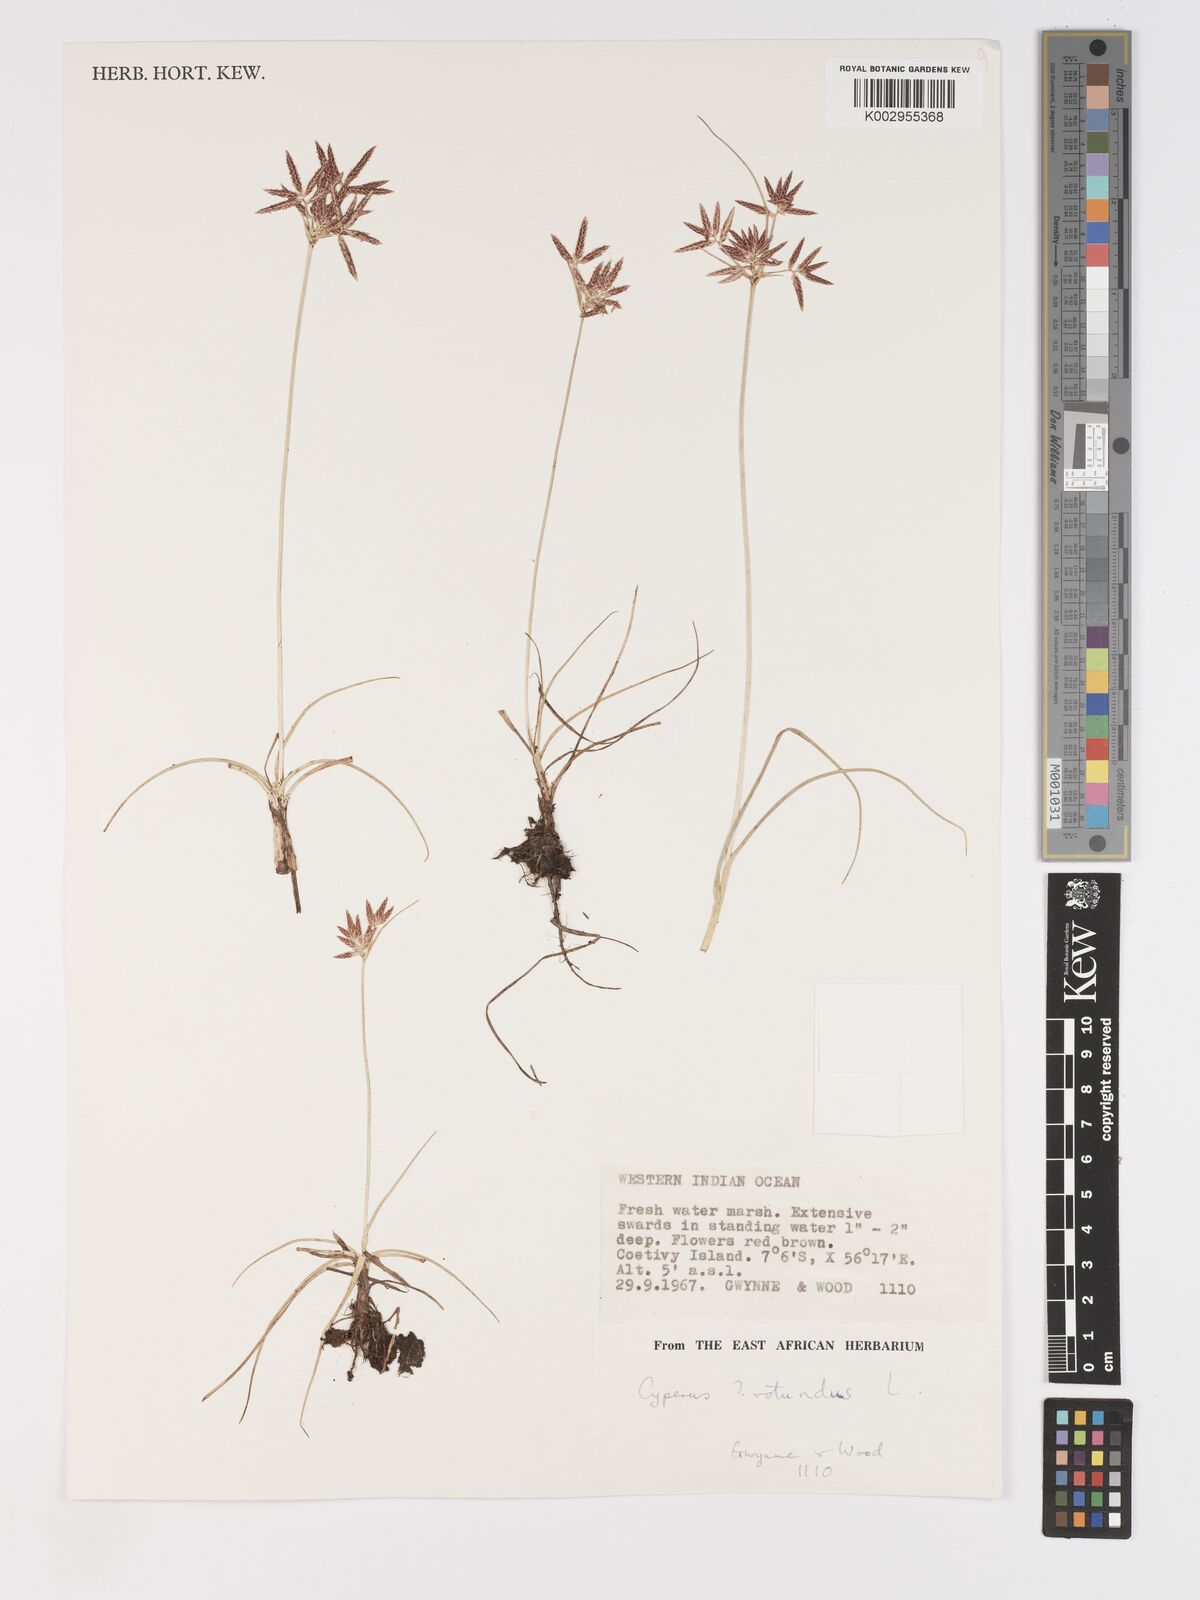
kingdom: Plantae
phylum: Tracheophyta
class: Liliopsida
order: Poales
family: Cyperaceae
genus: Cyperus
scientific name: Cyperus rotundus
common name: Nutgrass
